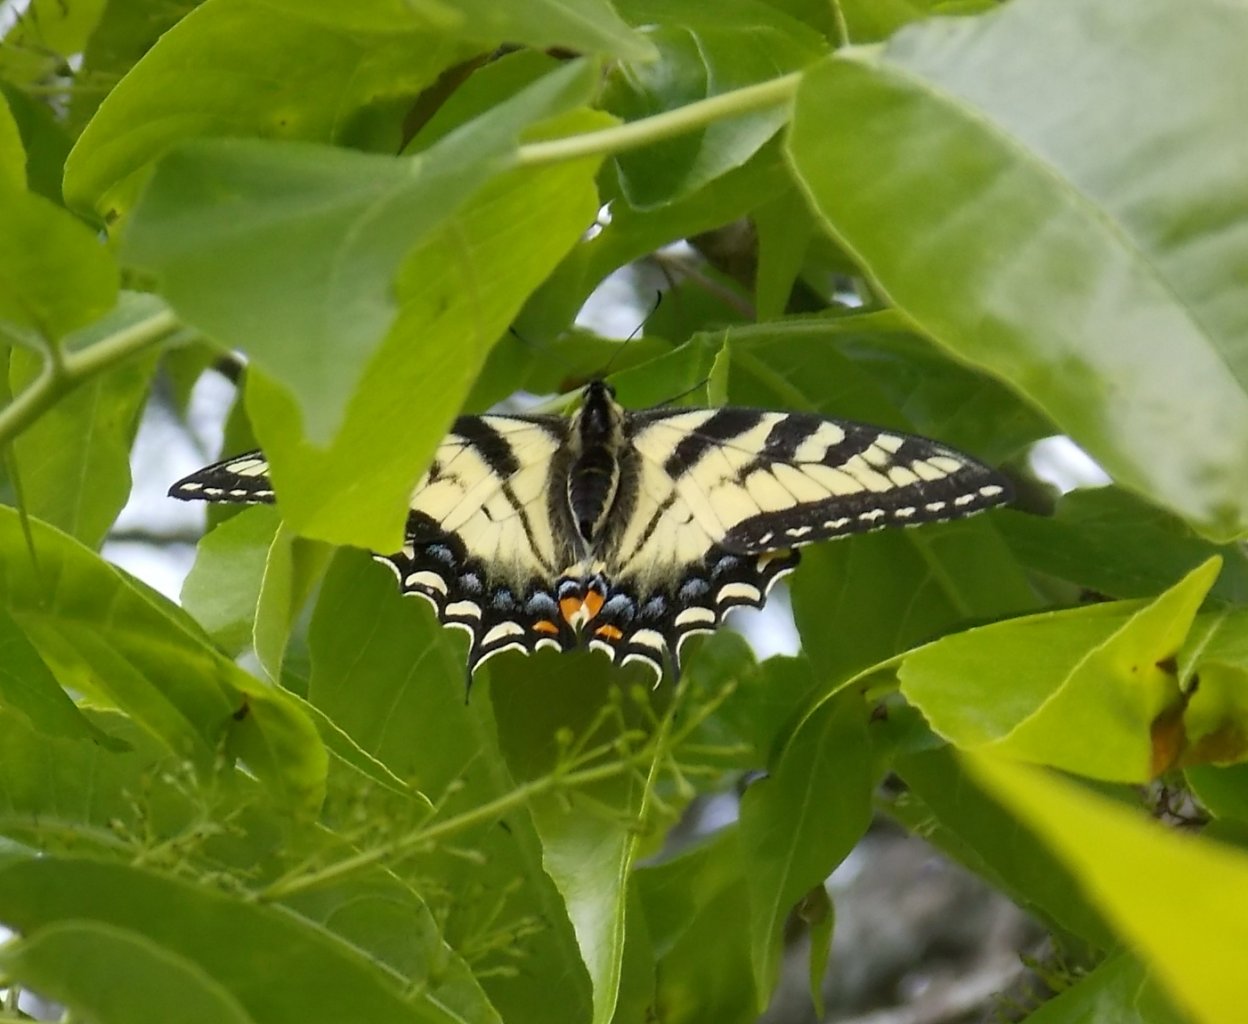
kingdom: Animalia
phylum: Arthropoda
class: Insecta
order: Lepidoptera
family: Papilionidae
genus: Pterourus
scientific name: Pterourus canadensis
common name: Canadian Tiger Swallowtail
